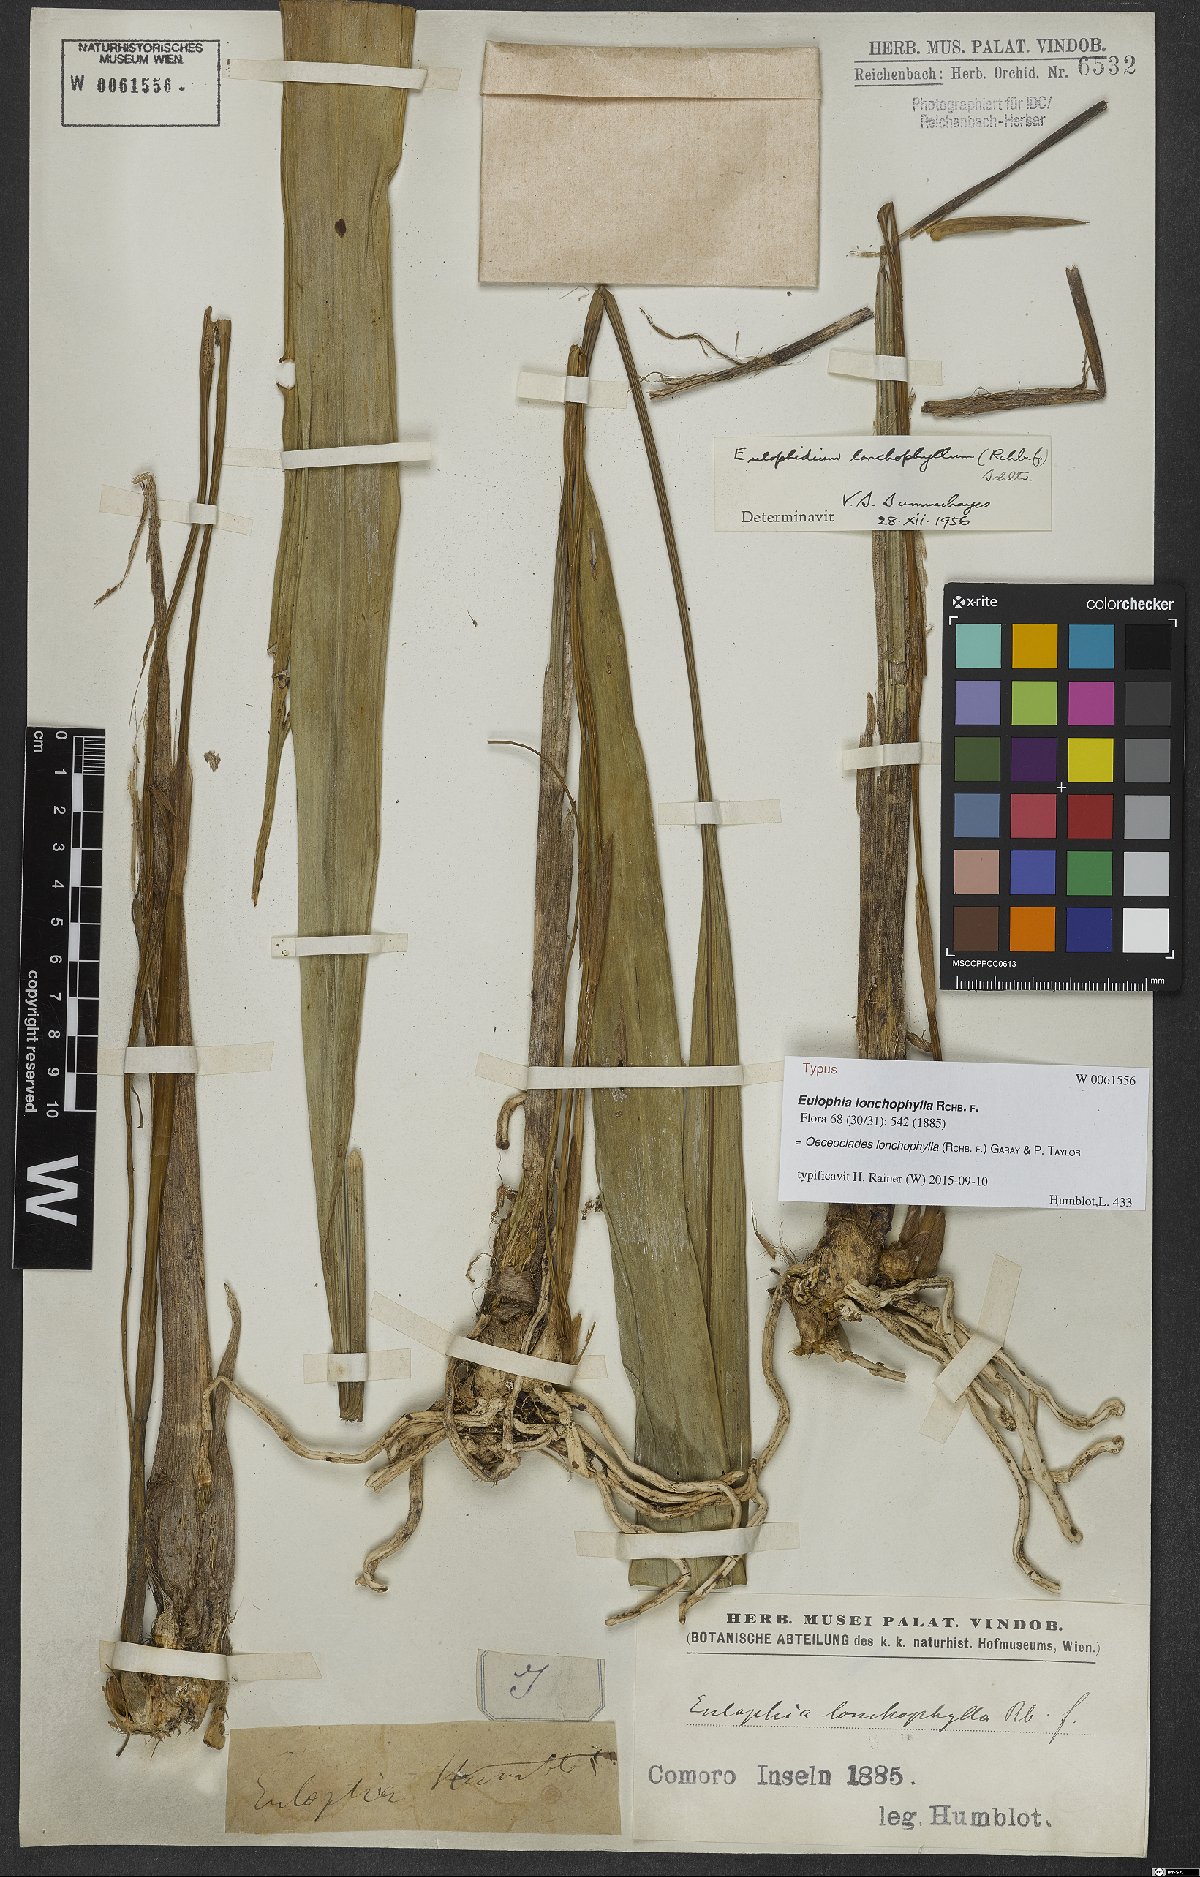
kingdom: Plantae
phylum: Tracheophyta
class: Liliopsida
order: Asparagales
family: Orchidaceae
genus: Eulophia
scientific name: Eulophia lonchophylla
